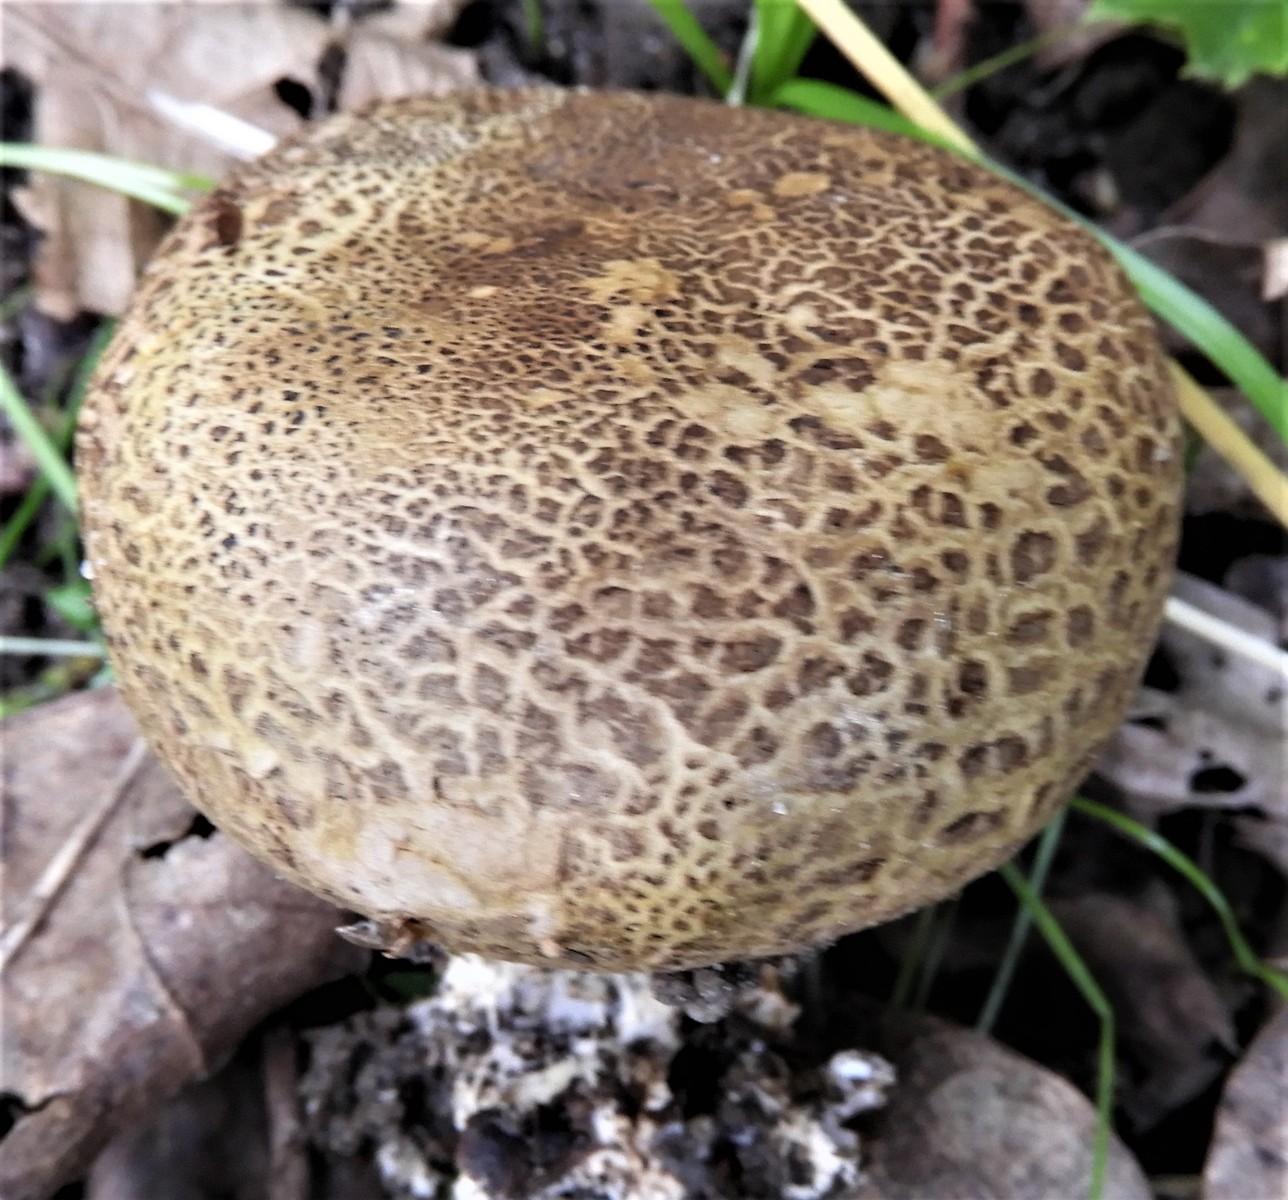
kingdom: Fungi
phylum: Basidiomycota
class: Agaricomycetes
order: Boletales
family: Sclerodermataceae
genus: Scleroderma
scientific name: Scleroderma verrucosum
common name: stilket bruskbold
